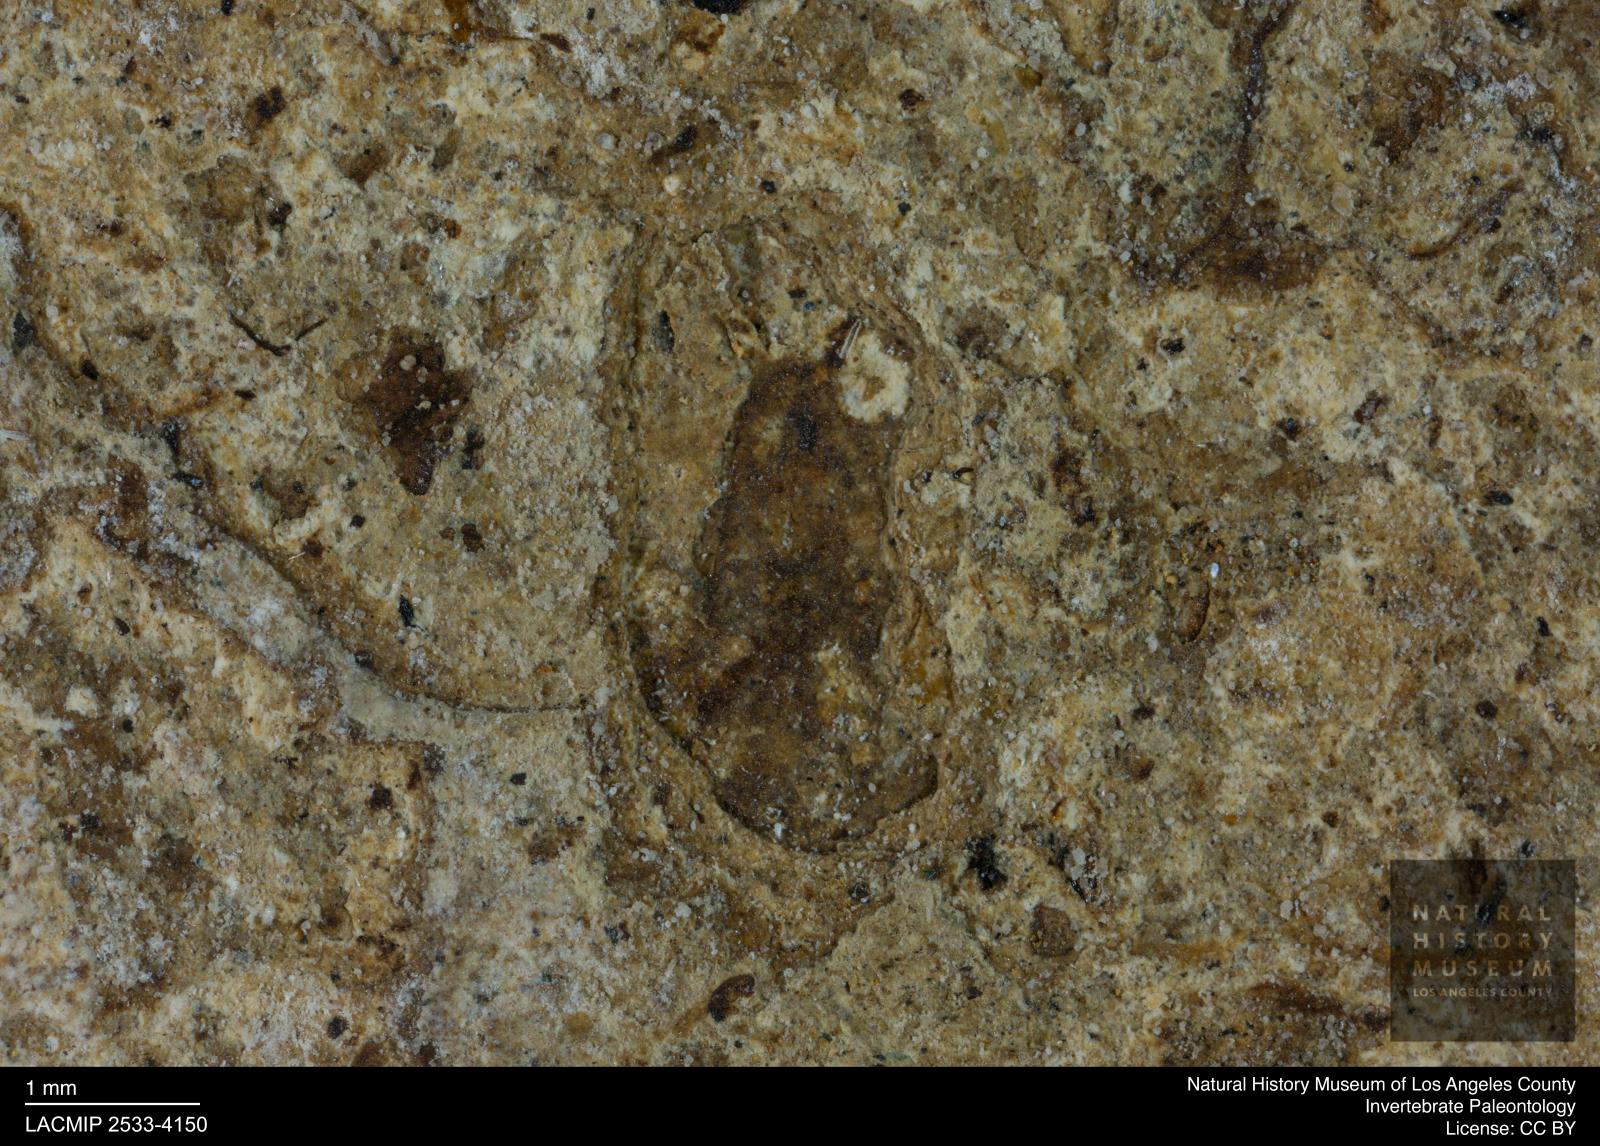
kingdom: Animalia
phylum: Arthropoda
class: Insecta
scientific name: Insecta
